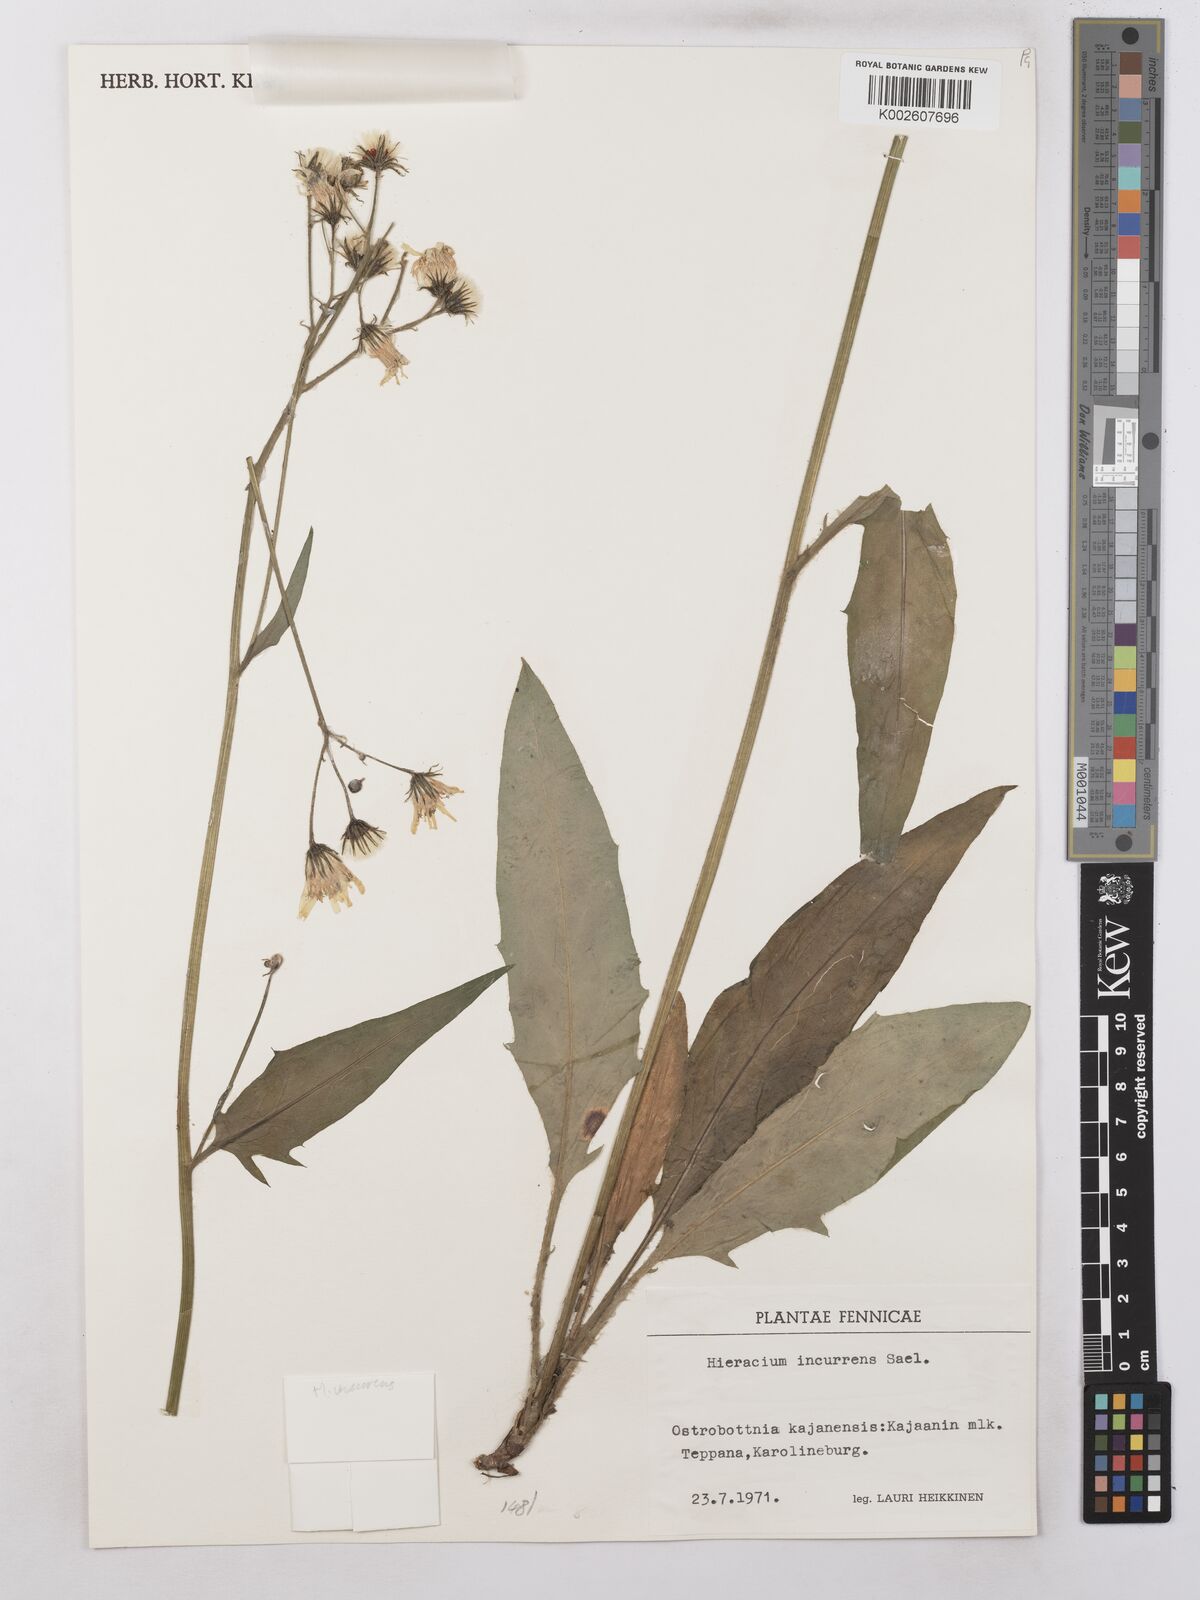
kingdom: Plantae
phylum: Tracheophyta
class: Magnoliopsida
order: Asterales
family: Asteraceae
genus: Hieracium
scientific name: Hieracium incurrens
